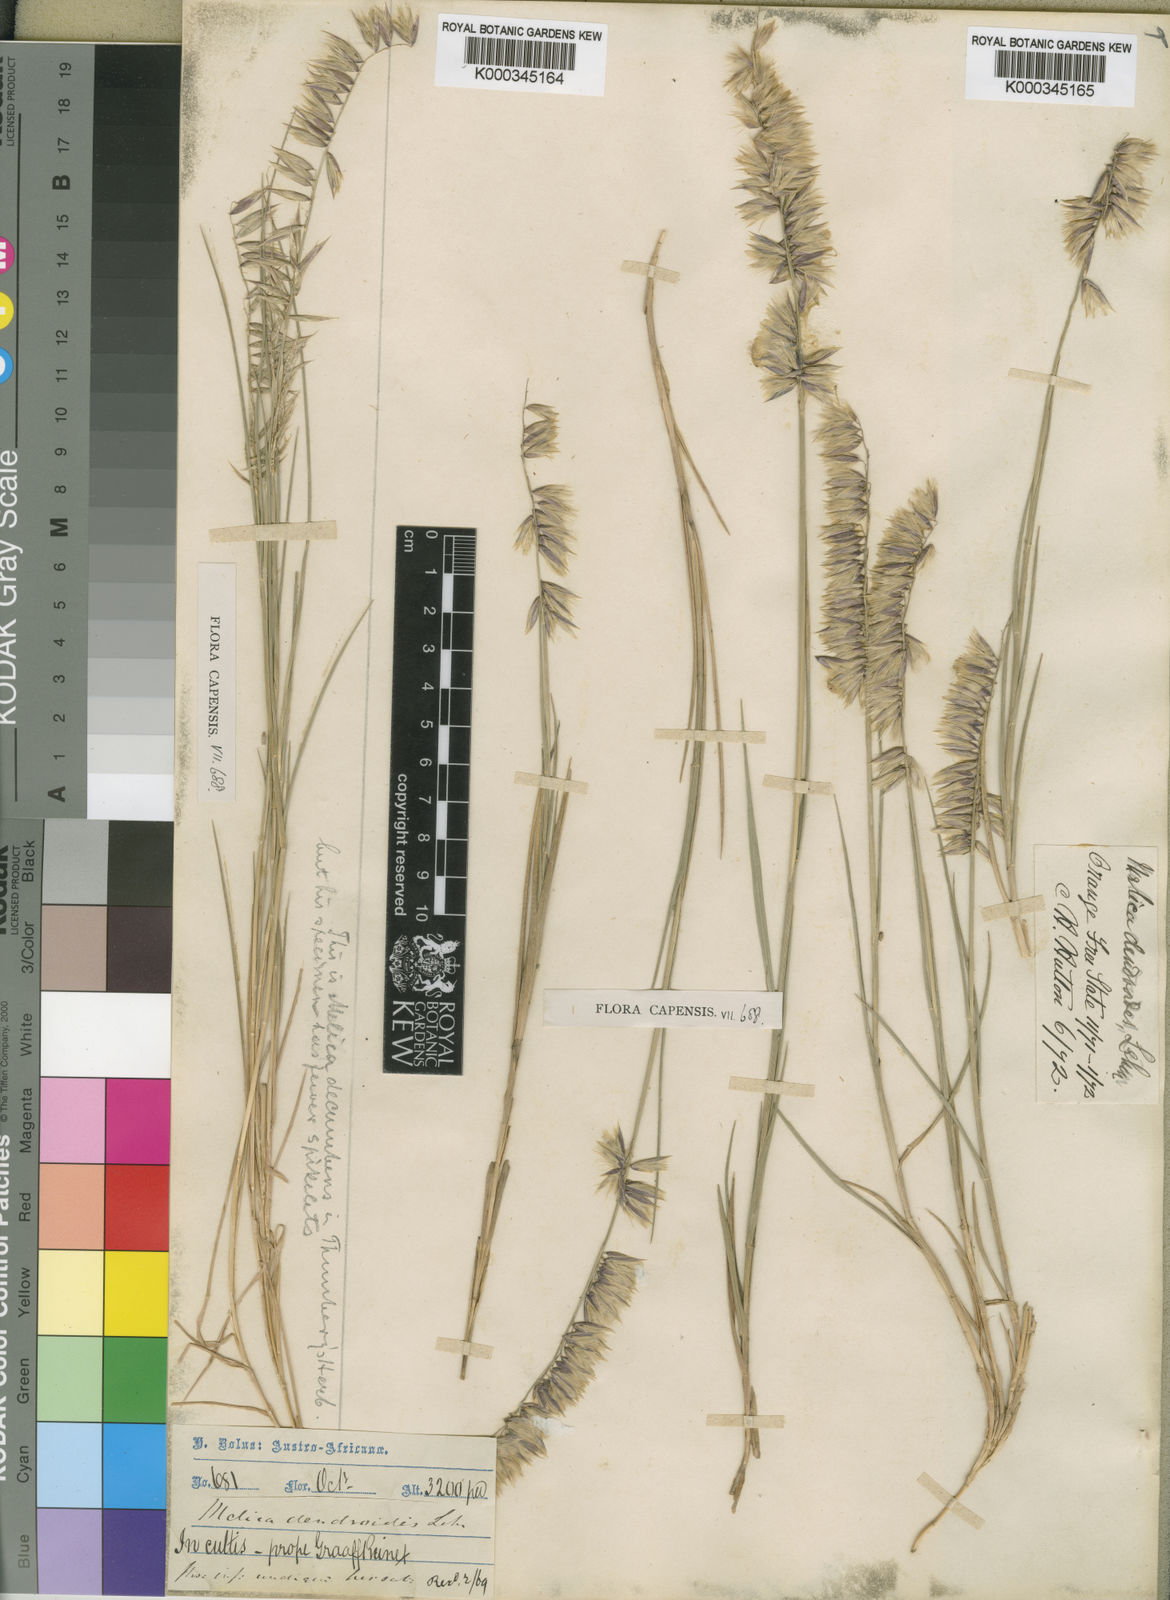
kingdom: Plantae
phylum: Tracheophyta
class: Liliopsida
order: Poales
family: Poaceae
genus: Melica
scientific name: Melica dendroides
